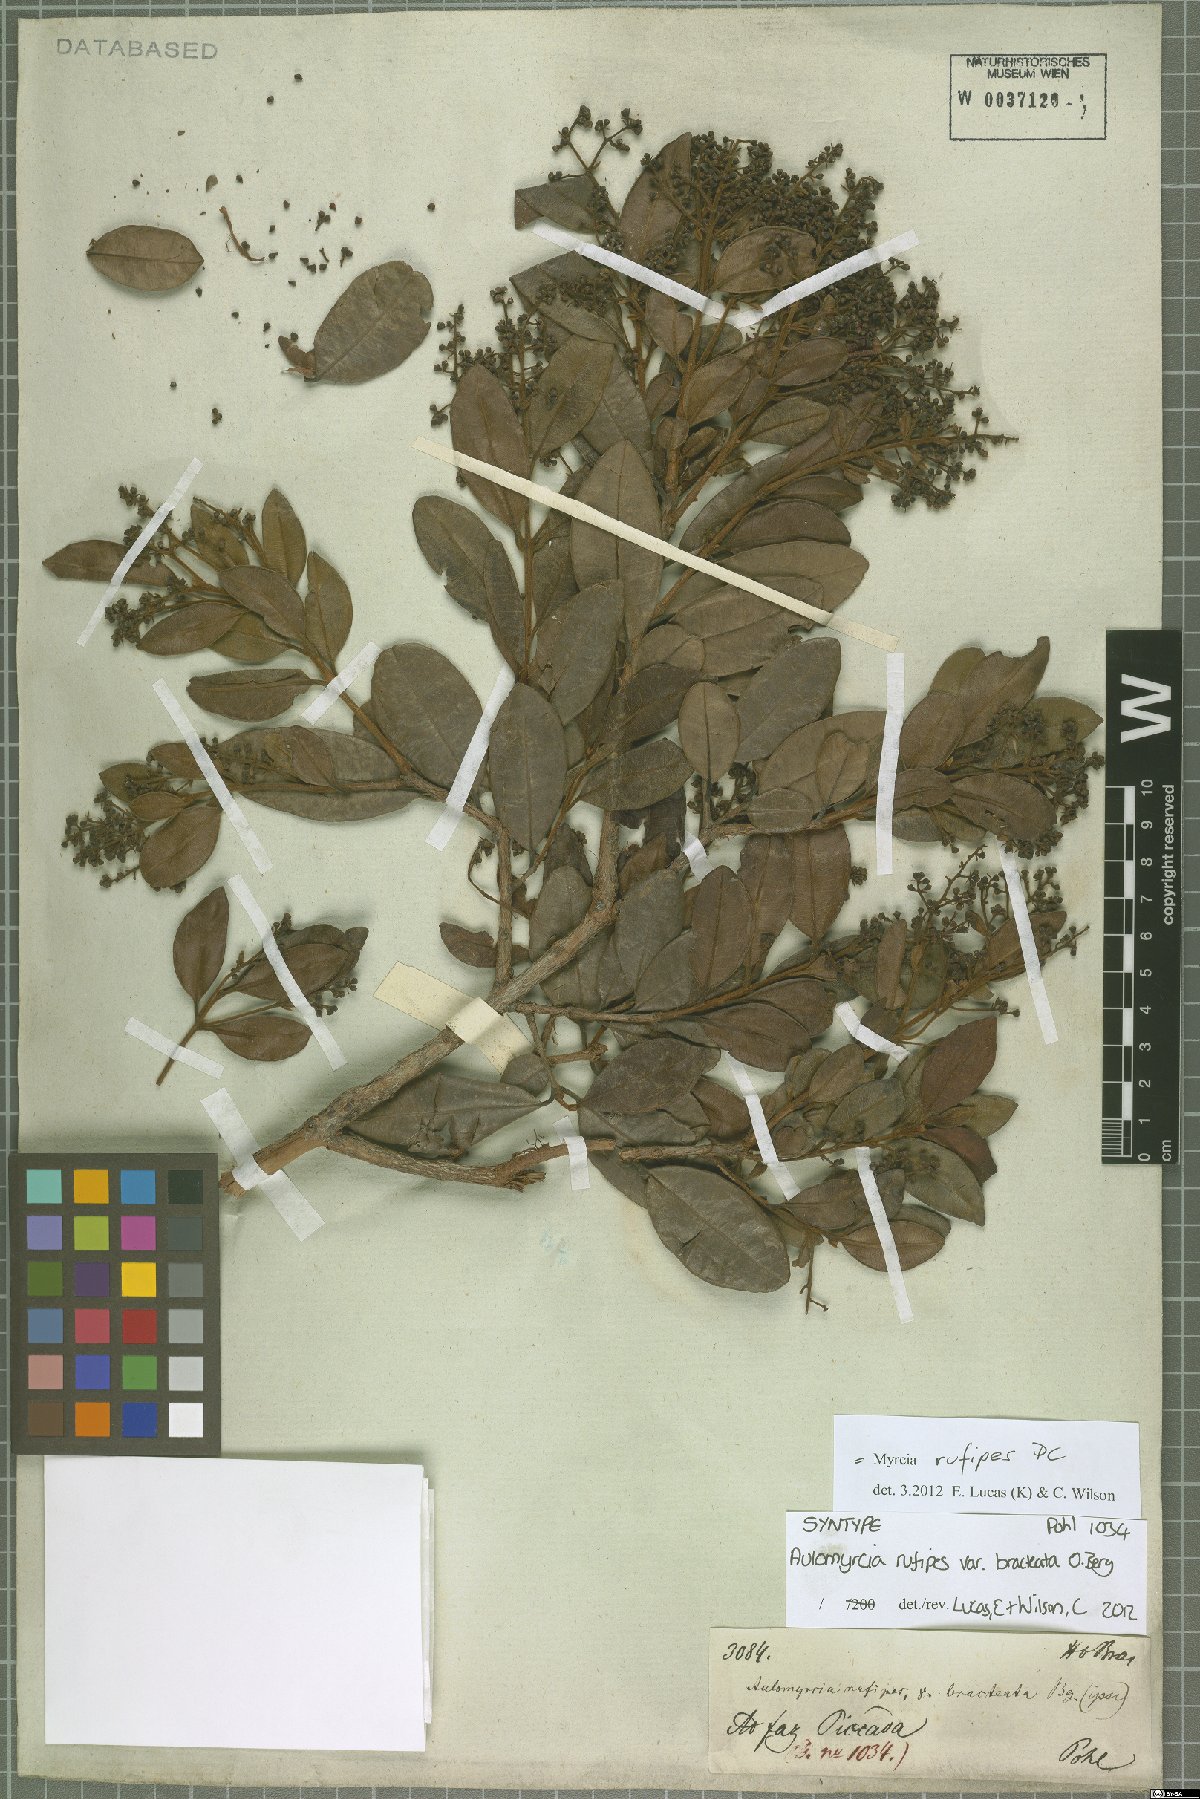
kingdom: Plantae
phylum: Tracheophyta
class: Magnoliopsida
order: Myrtales
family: Myrtaceae
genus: Myrcia
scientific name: Myrcia rufipes
